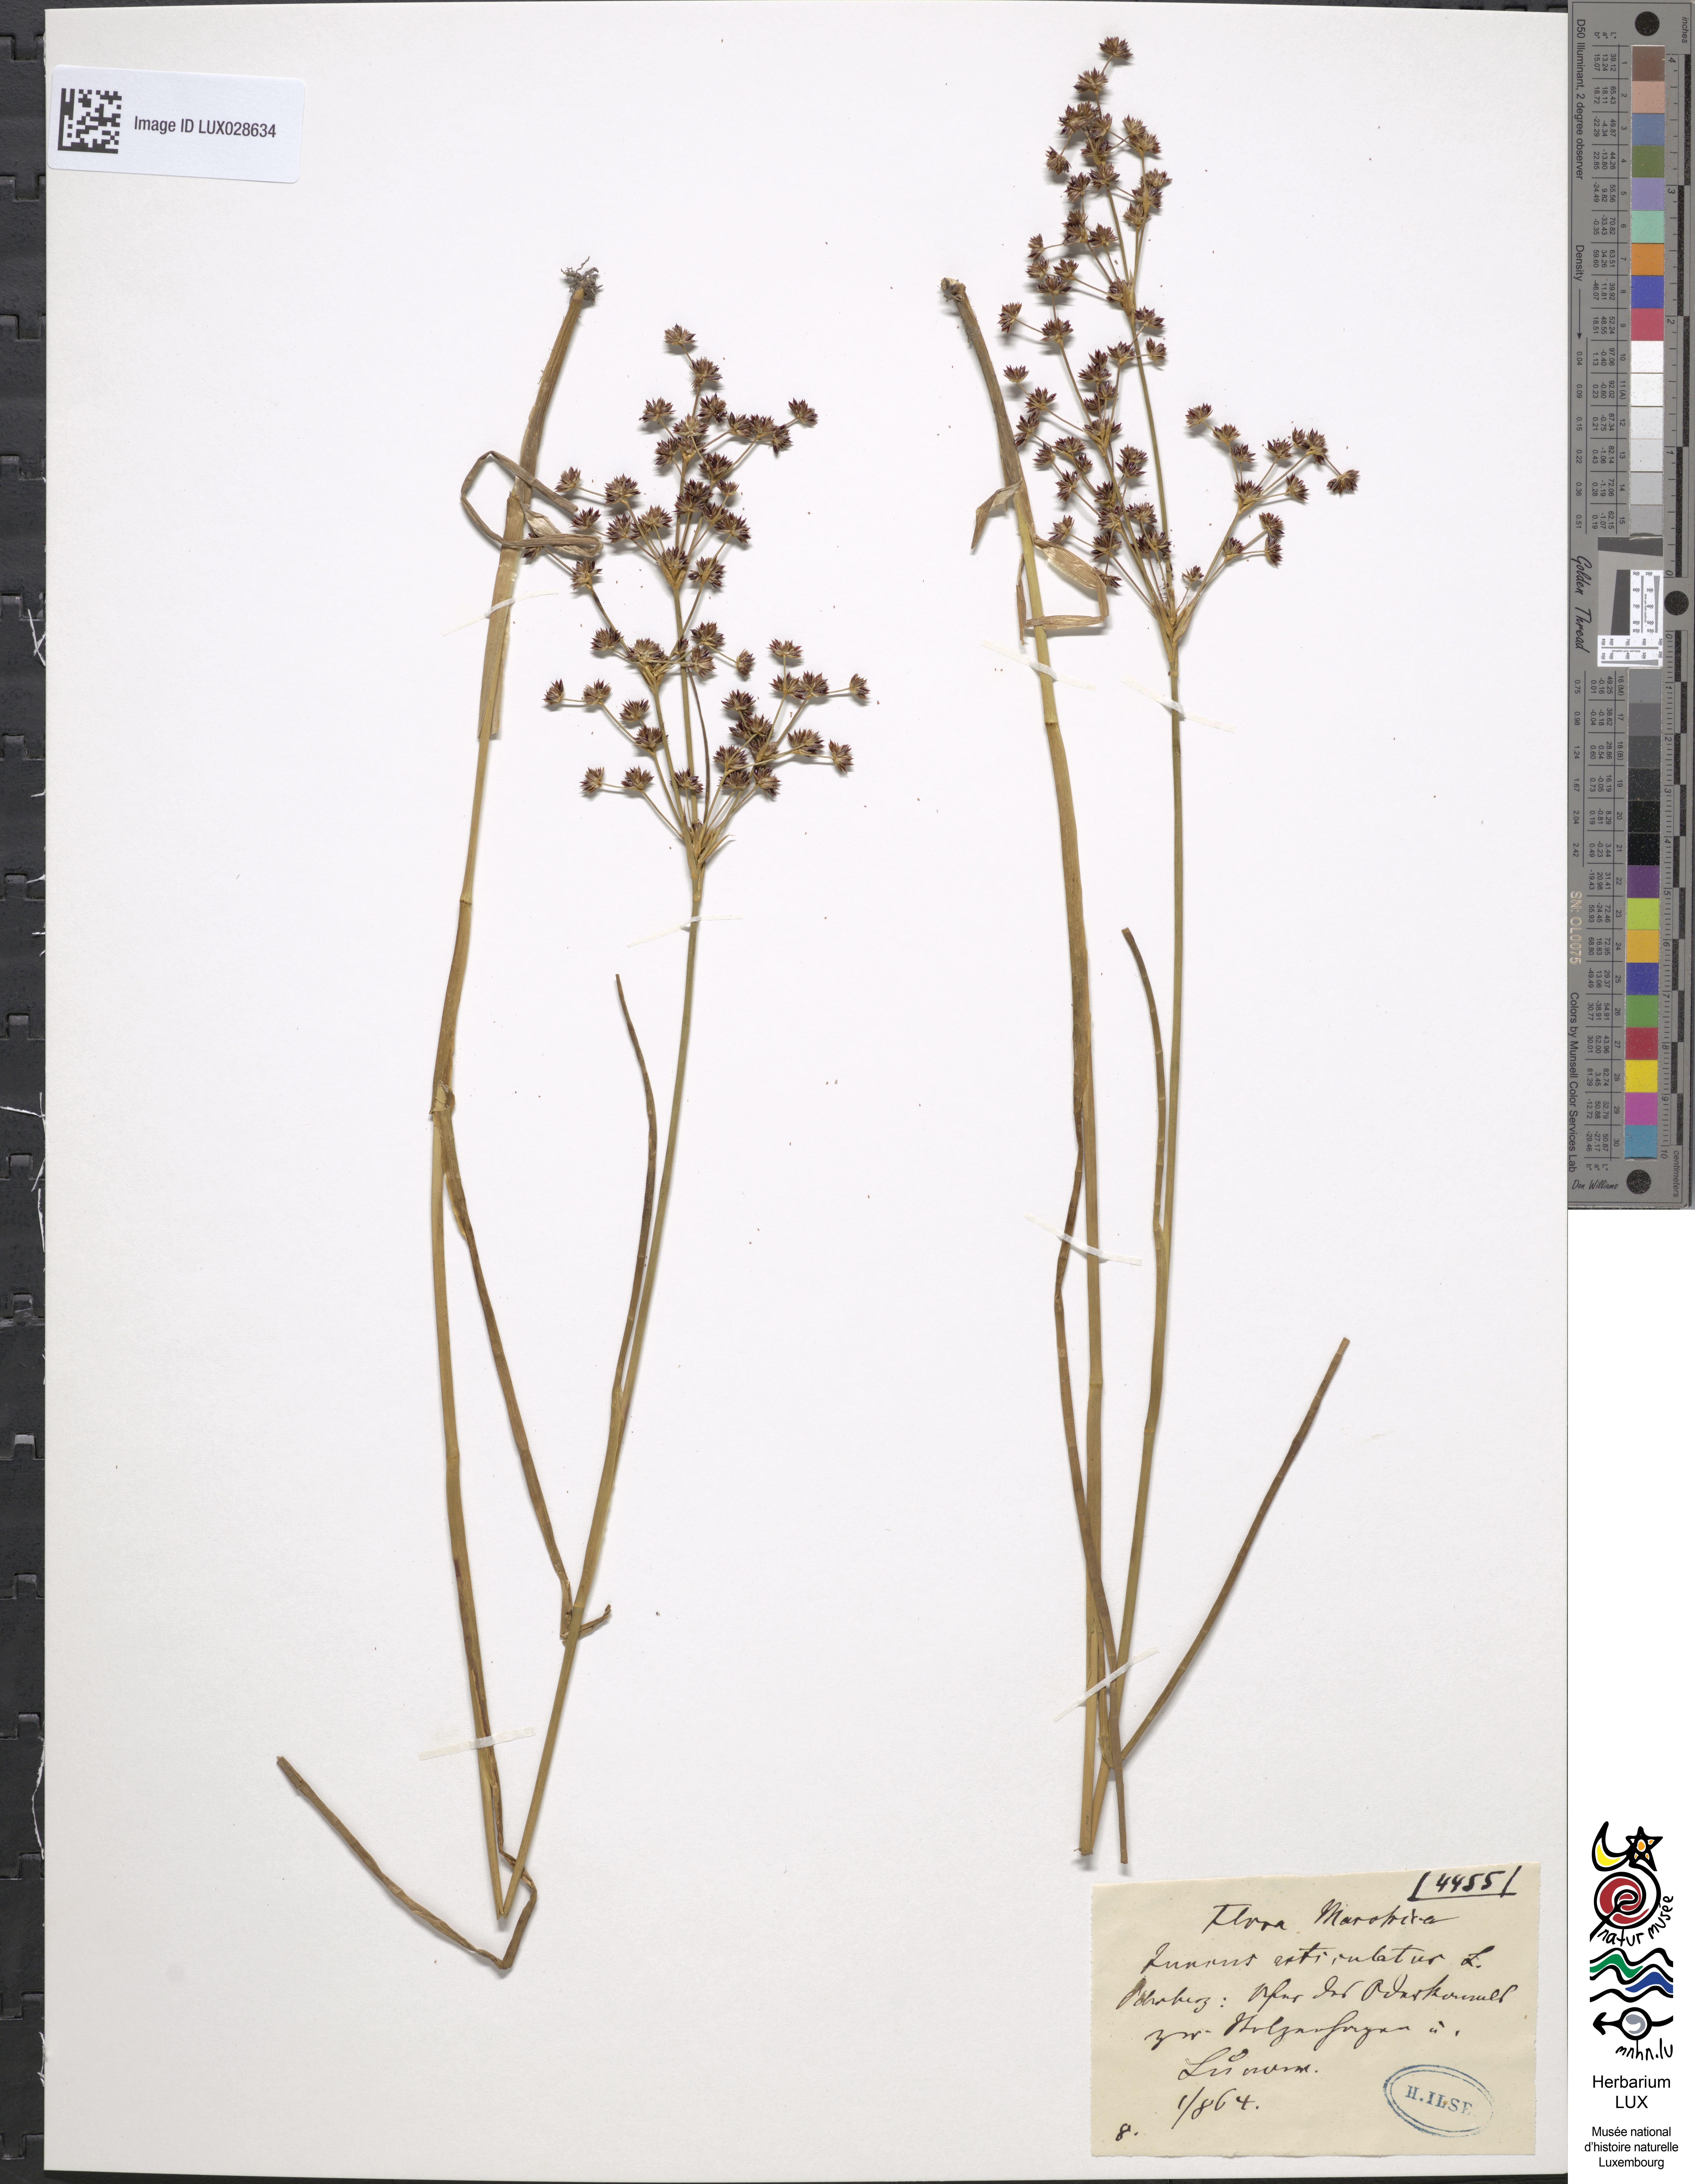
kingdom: Plantae
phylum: Tracheophyta
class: Liliopsida
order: Poales
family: Juncaceae
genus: Juncus
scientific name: Juncus articulatus
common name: Jointed rush
